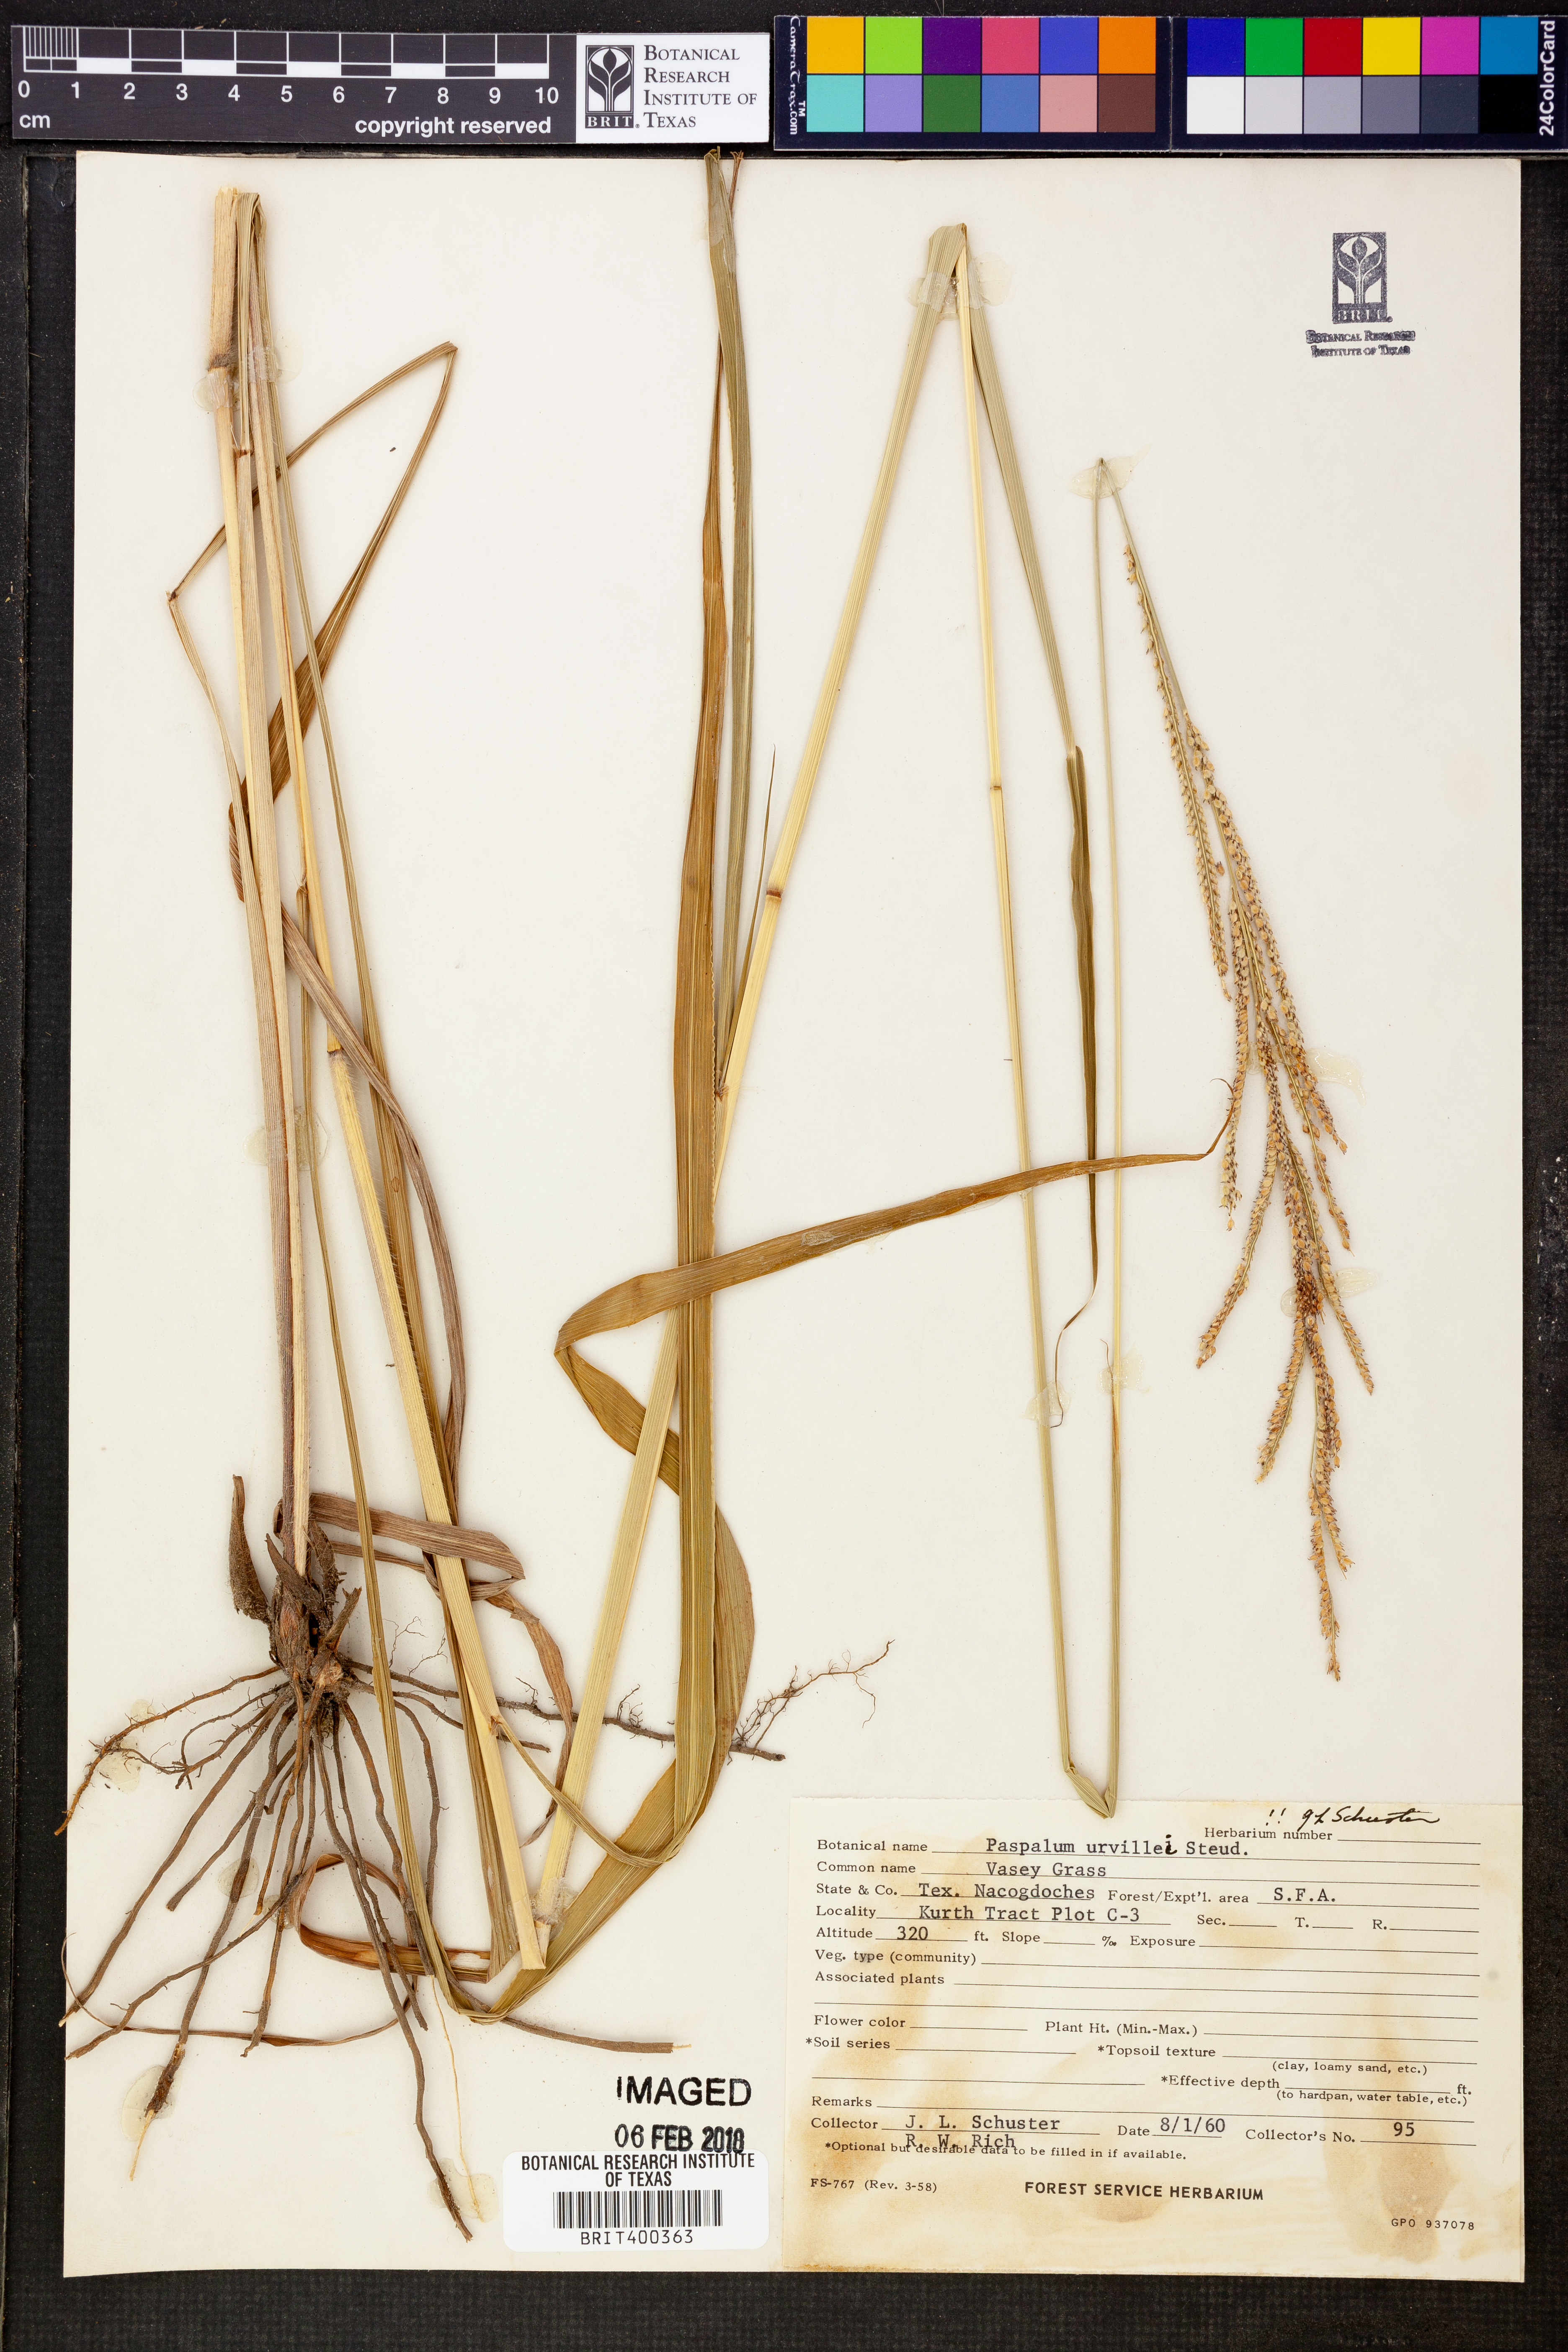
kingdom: Plantae
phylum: Tracheophyta
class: Liliopsida
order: Poales
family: Poaceae
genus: Paspalum
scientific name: Paspalum urvillei
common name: Vasey's grass
